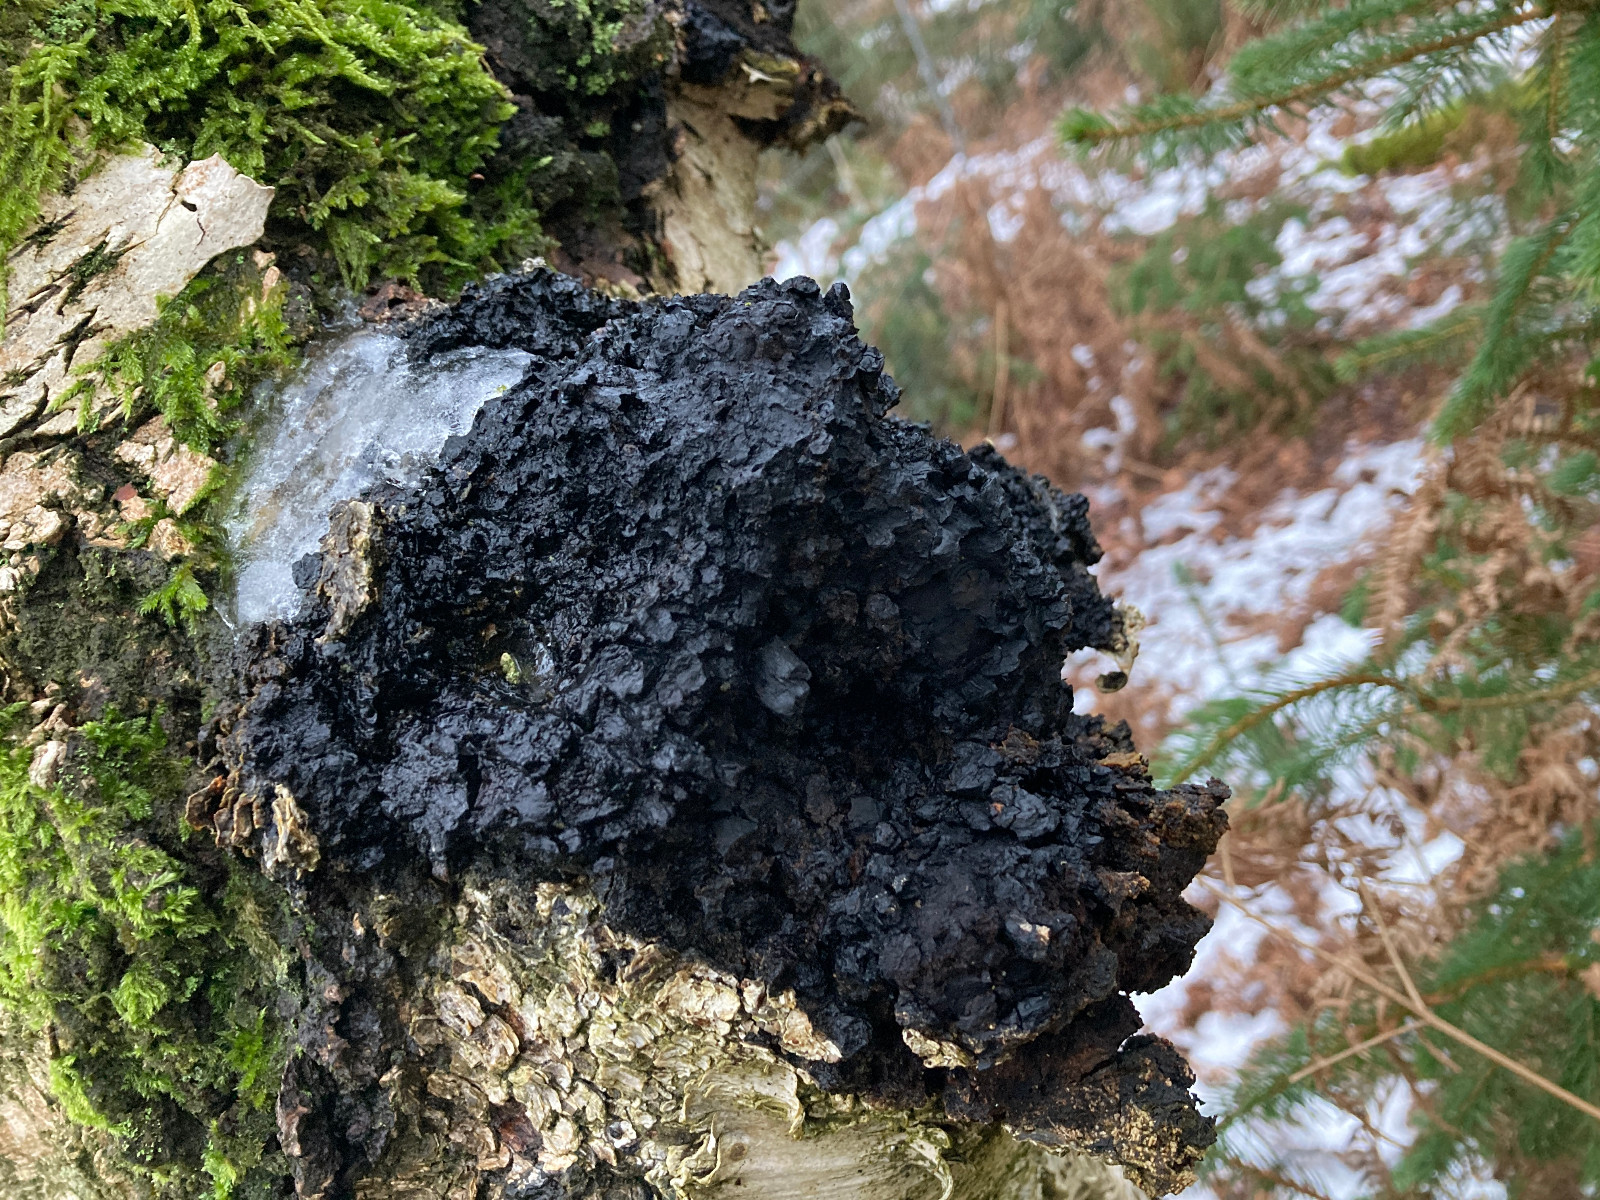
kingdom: Fungi
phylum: Basidiomycota
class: Agaricomycetes
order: Hymenochaetales
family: Hymenochaetaceae
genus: Inonotus
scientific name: Inonotus obliquus
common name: birke-spejlporesvamp
